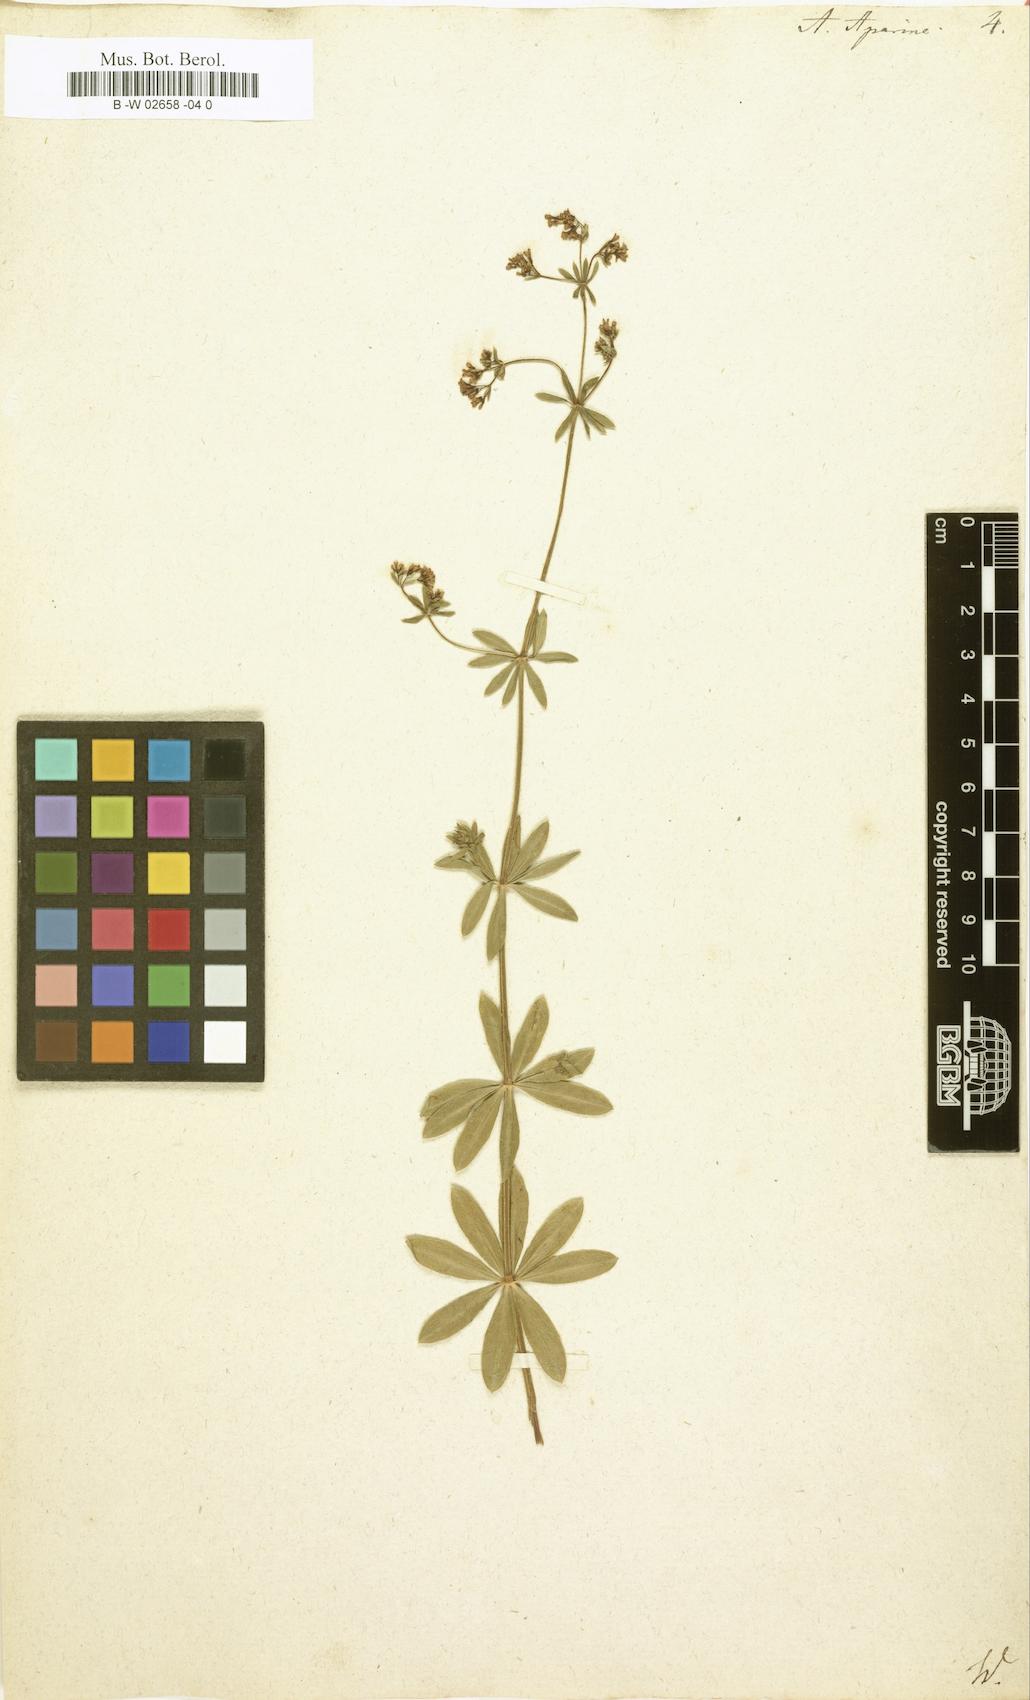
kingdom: Plantae
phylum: Tracheophyta
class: Magnoliopsida
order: Gentianales
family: Rubiaceae
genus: Galium
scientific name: Galium
